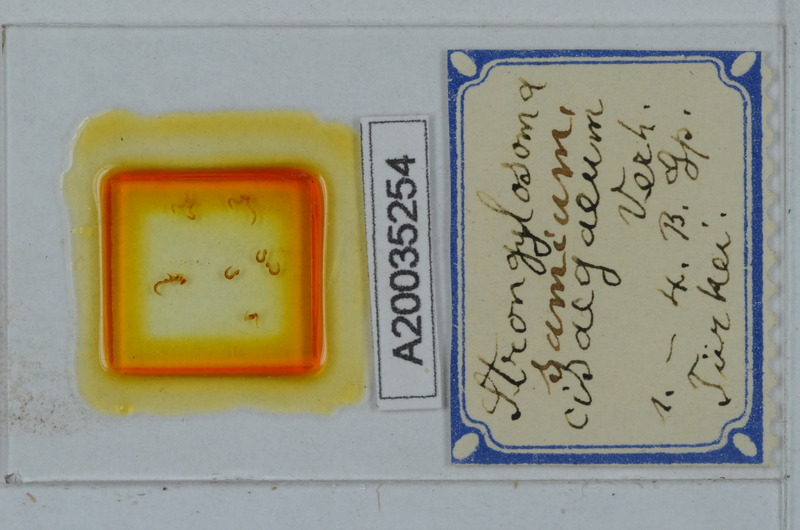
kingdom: Animalia
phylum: Arthropoda
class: Diplopoda
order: Polydesmida
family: Paradoxosomatidae
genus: Strongylosoma
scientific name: Strongylosoma samium
